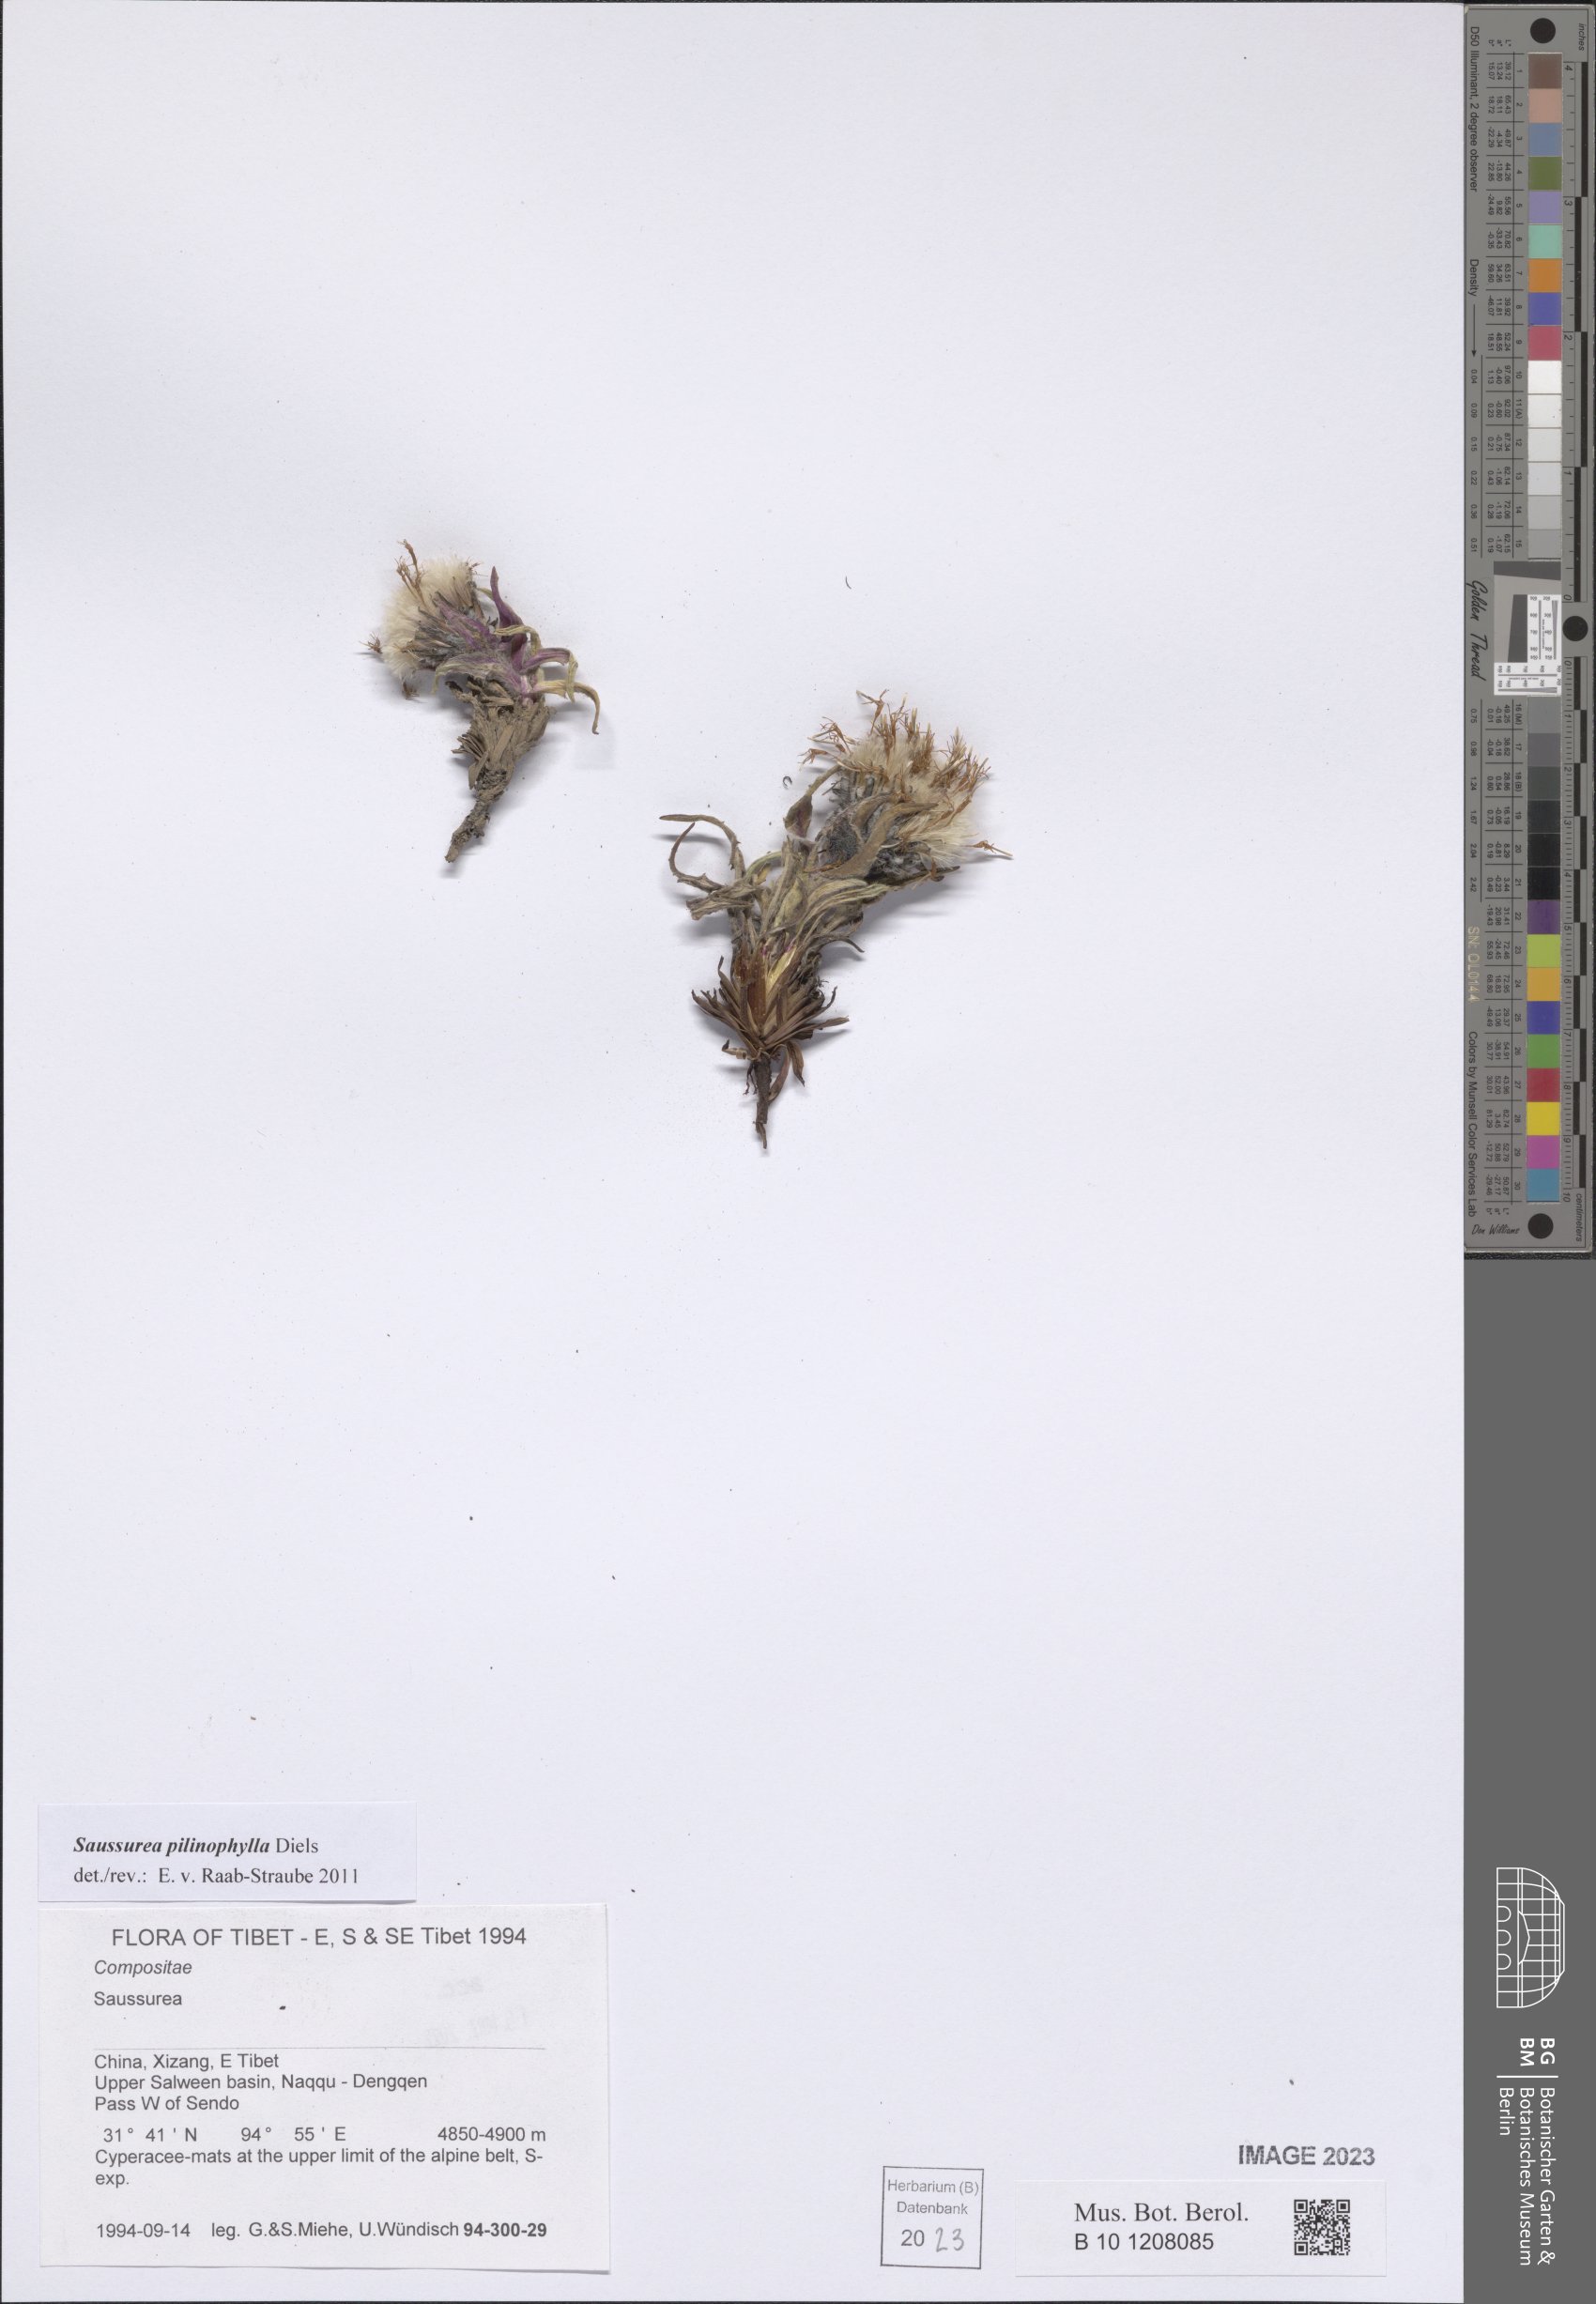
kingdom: Plantae
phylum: Tracheophyta
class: Magnoliopsida
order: Asterales
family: Asteraceae
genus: Saussurea
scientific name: Saussurea pilinophylla
